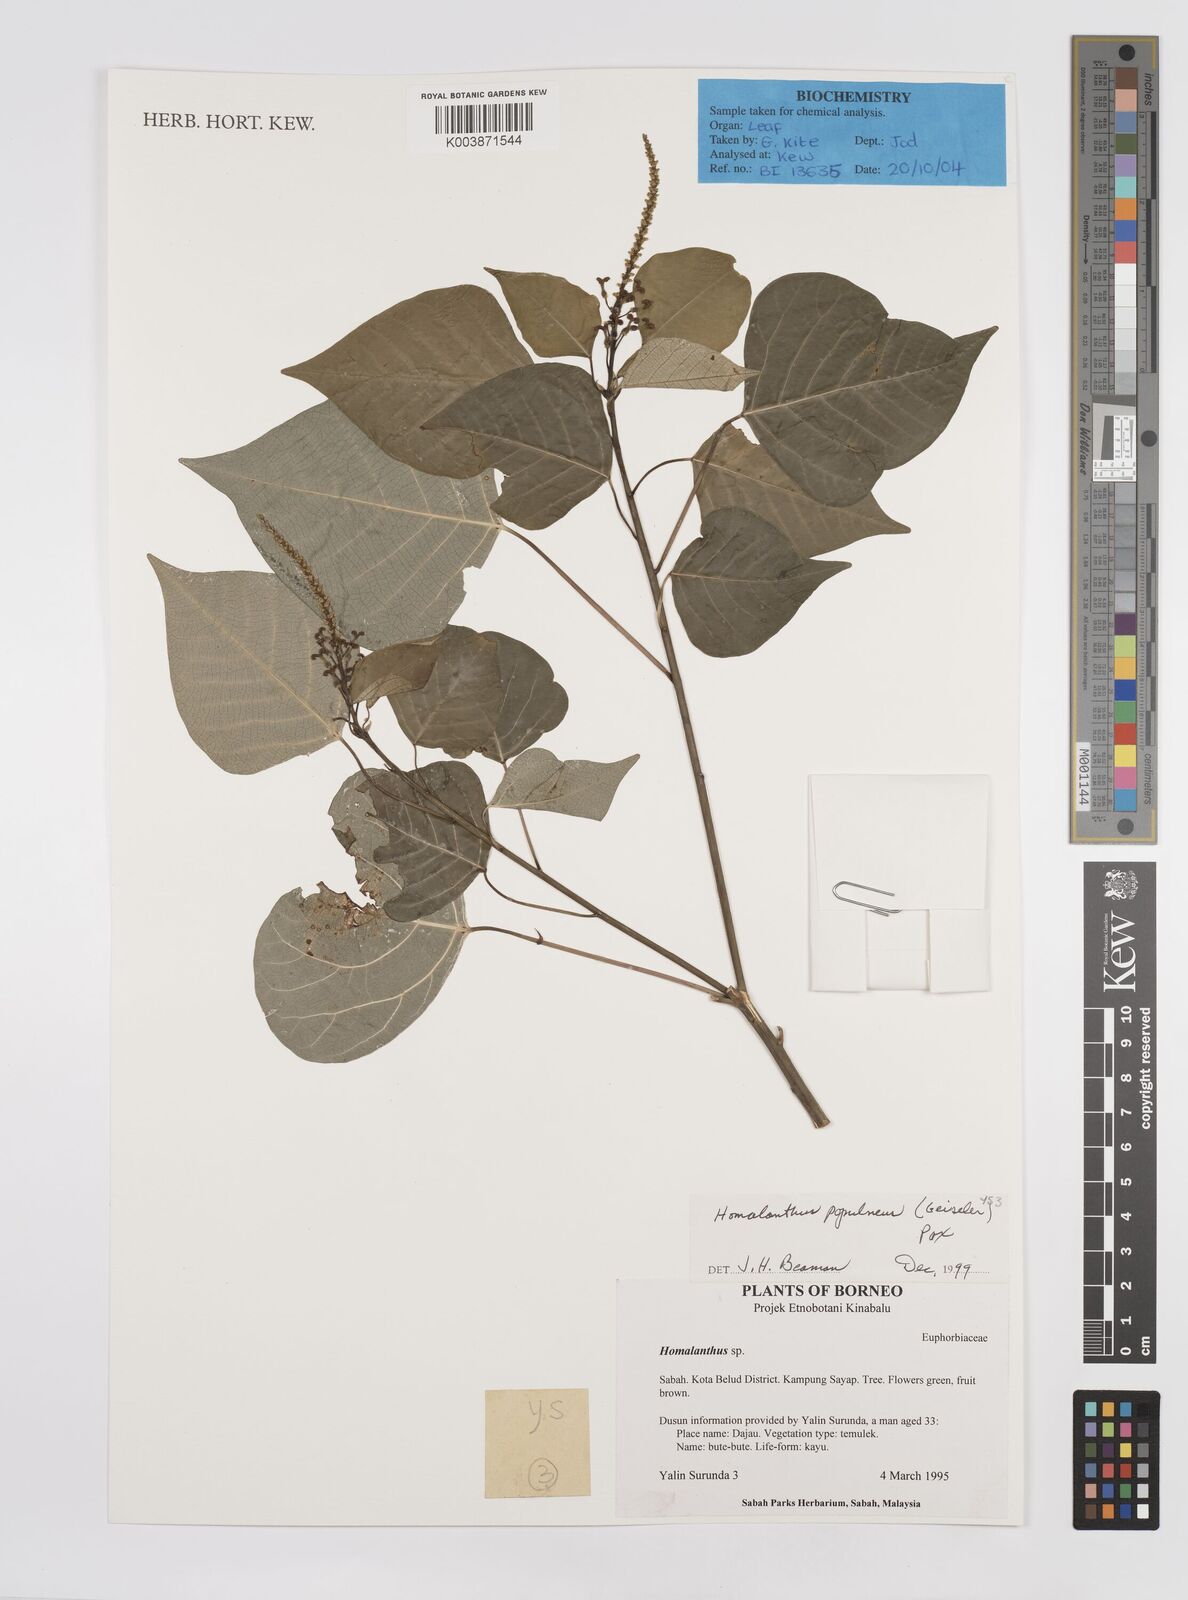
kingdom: Plantae
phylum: Tracheophyta
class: Magnoliopsida
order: Malpighiales
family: Euphorbiaceae
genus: Homalanthus
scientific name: Homalanthus populneus
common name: Spurge
